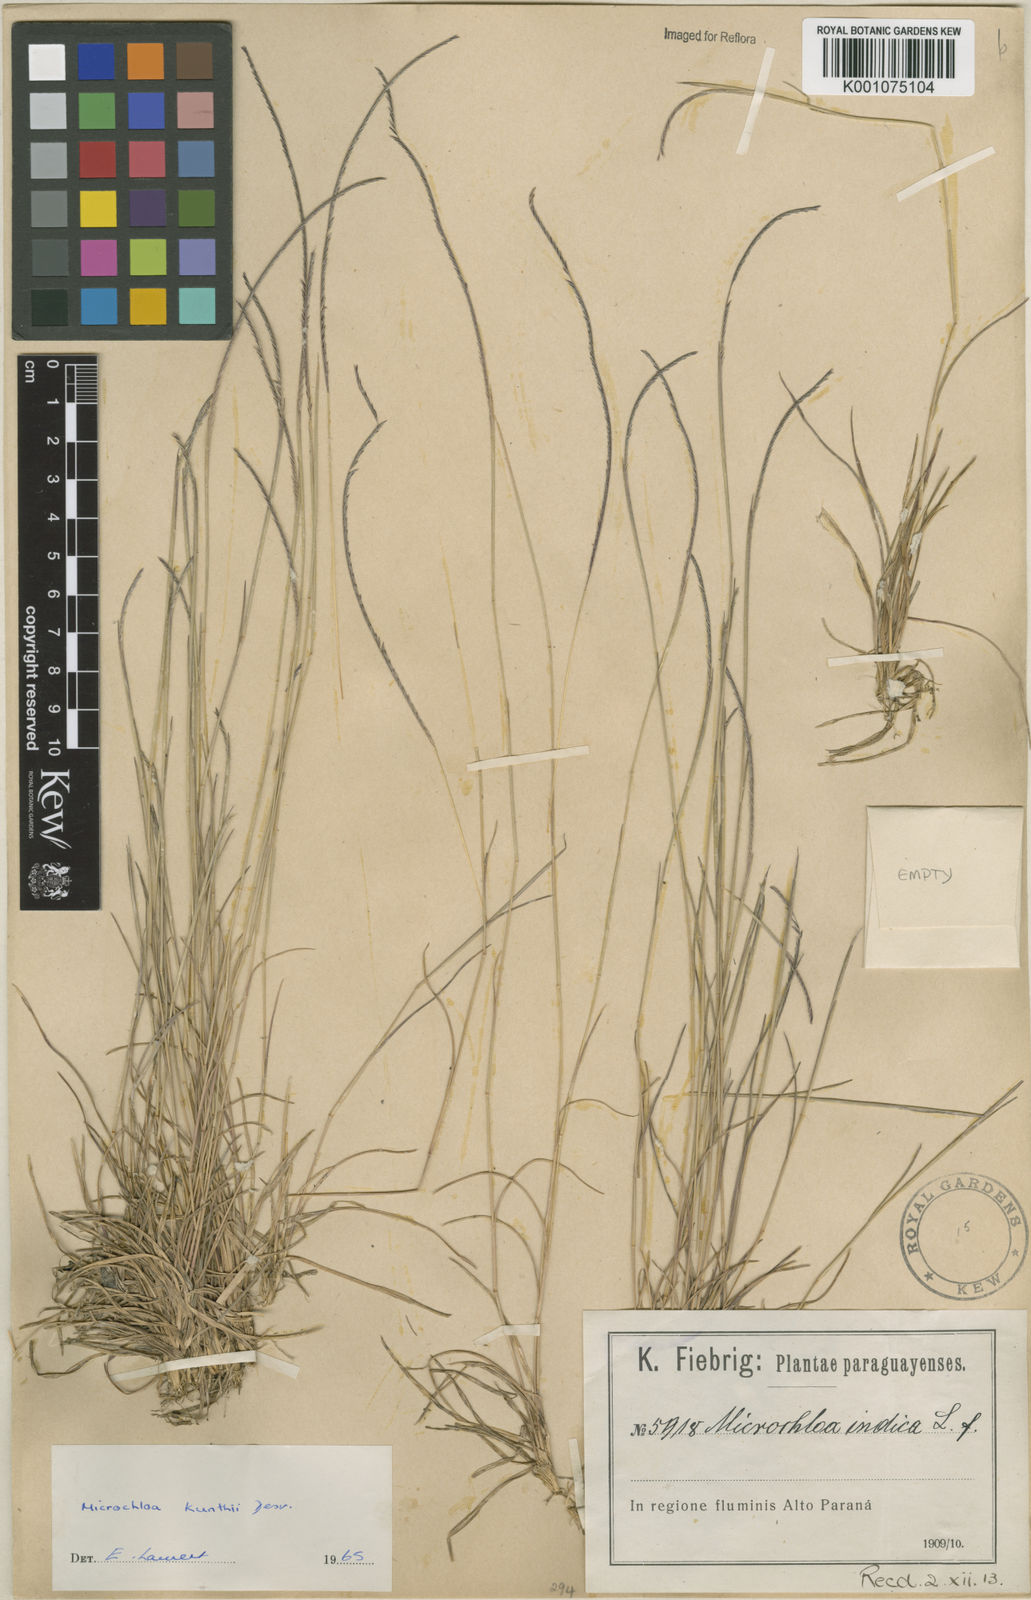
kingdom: Plantae
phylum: Tracheophyta
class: Liliopsida
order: Poales
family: Poaceae
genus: Microchloa
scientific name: Microchloa indica
